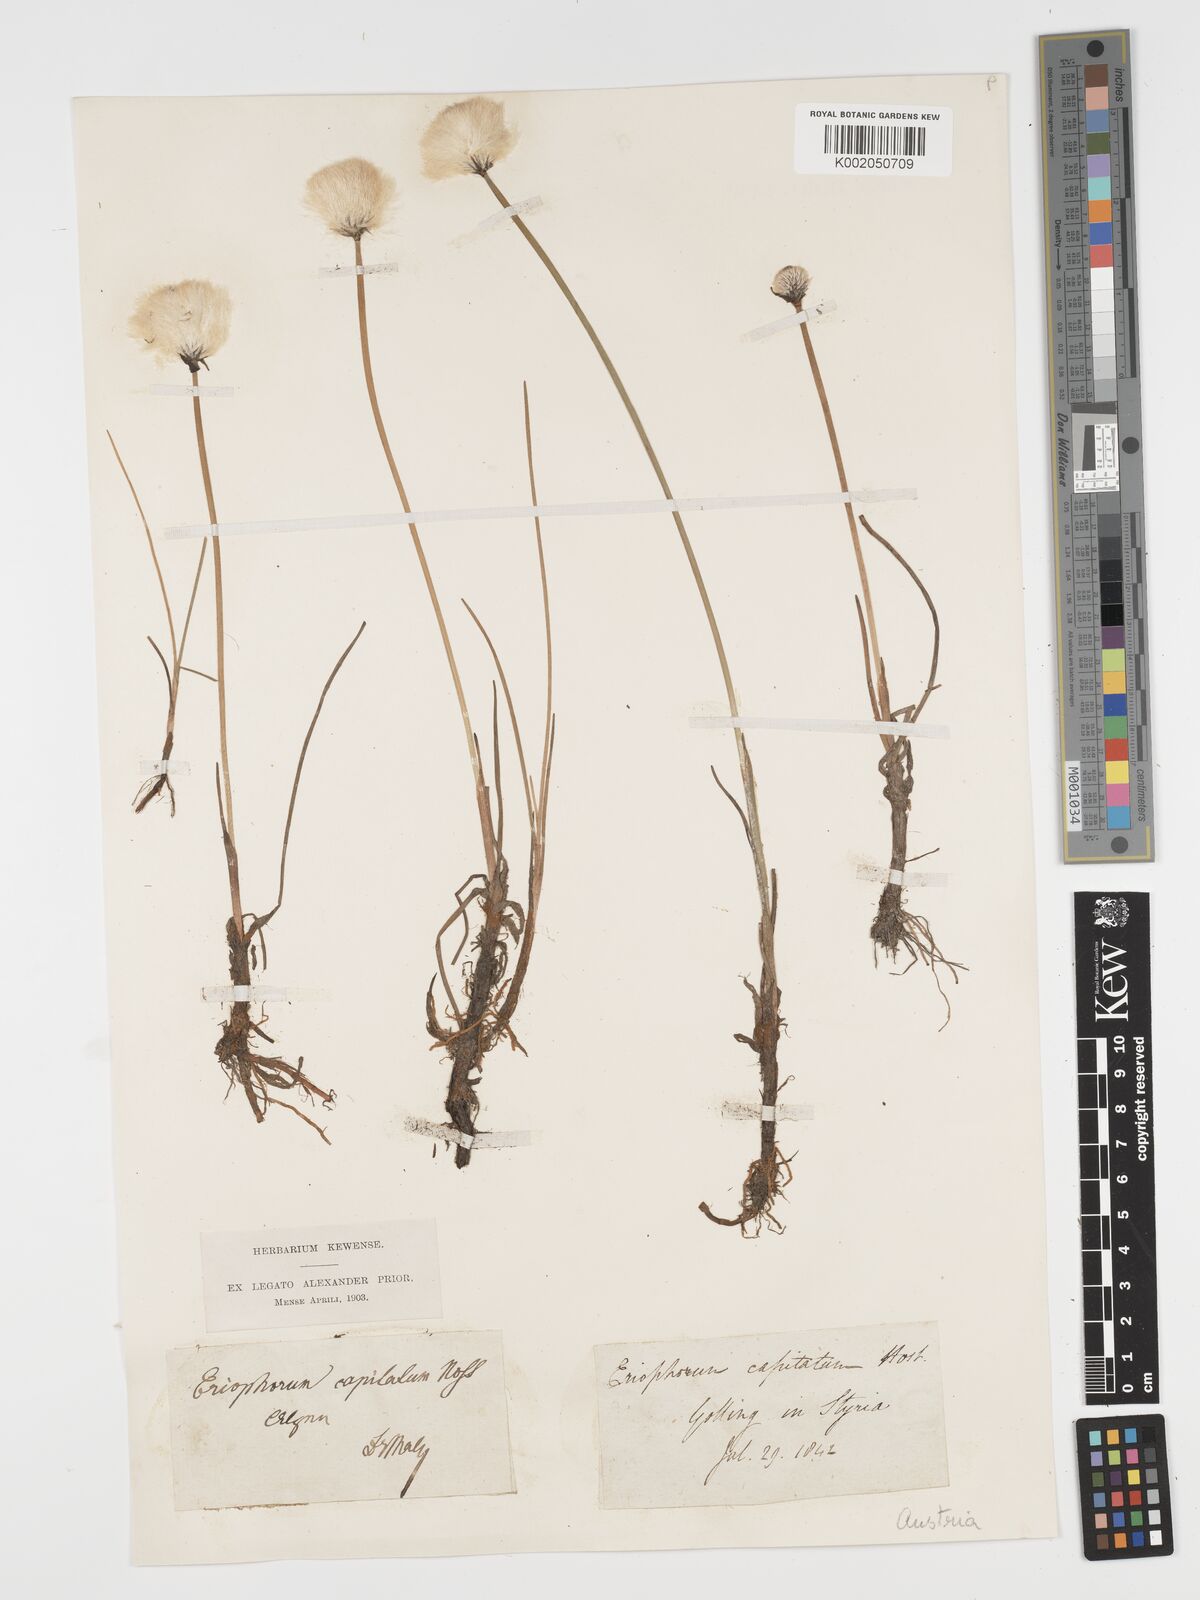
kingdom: Plantae
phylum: Tracheophyta
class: Liliopsida
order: Poales
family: Cyperaceae
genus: Eriophorum
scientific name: Eriophorum vaginatum
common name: Hare's-tail cottongrass
